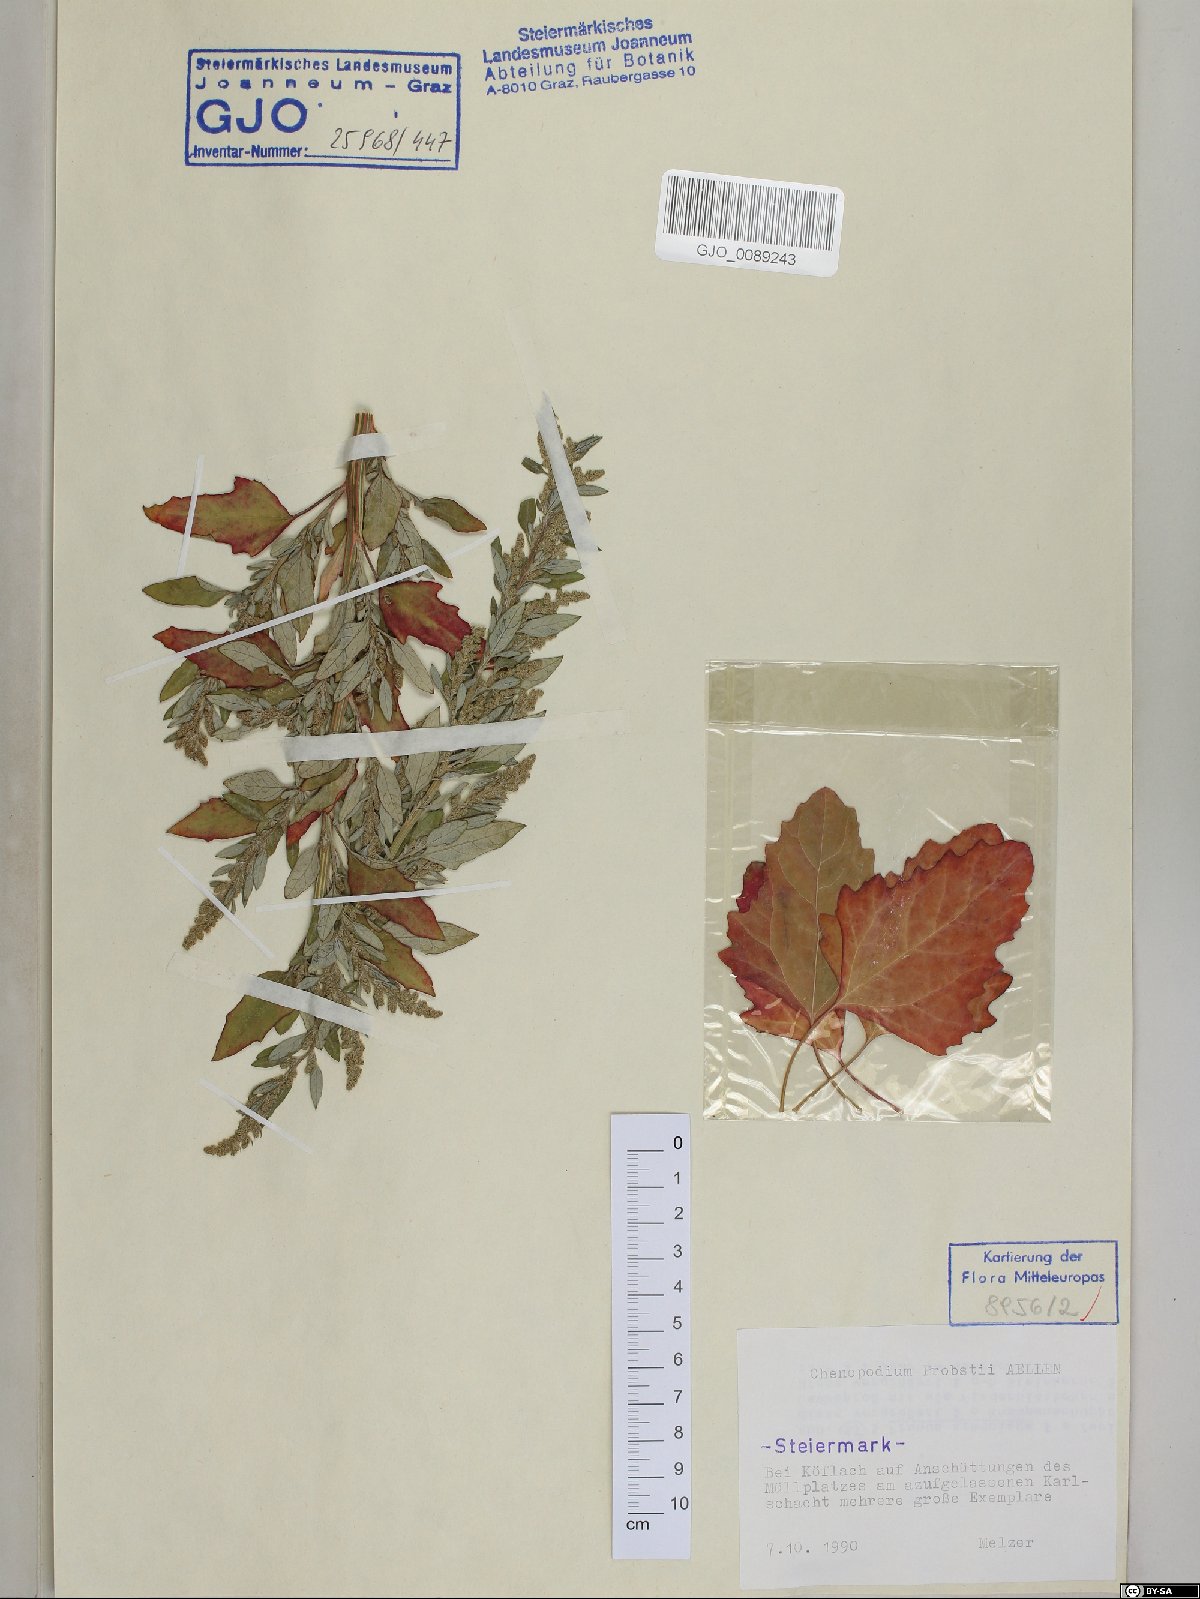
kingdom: Plantae
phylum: Tracheophyta
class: Magnoliopsida
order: Caryophyllales
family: Amaranthaceae
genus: Chenopodium
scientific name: Chenopodium probstii
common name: Probst's goosefoot
